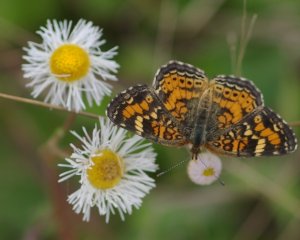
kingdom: Animalia
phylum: Arthropoda
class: Insecta
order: Lepidoptera
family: Nymphalidae
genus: Phyciodes
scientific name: Phyciodes phaon
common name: Phaon Crescent
